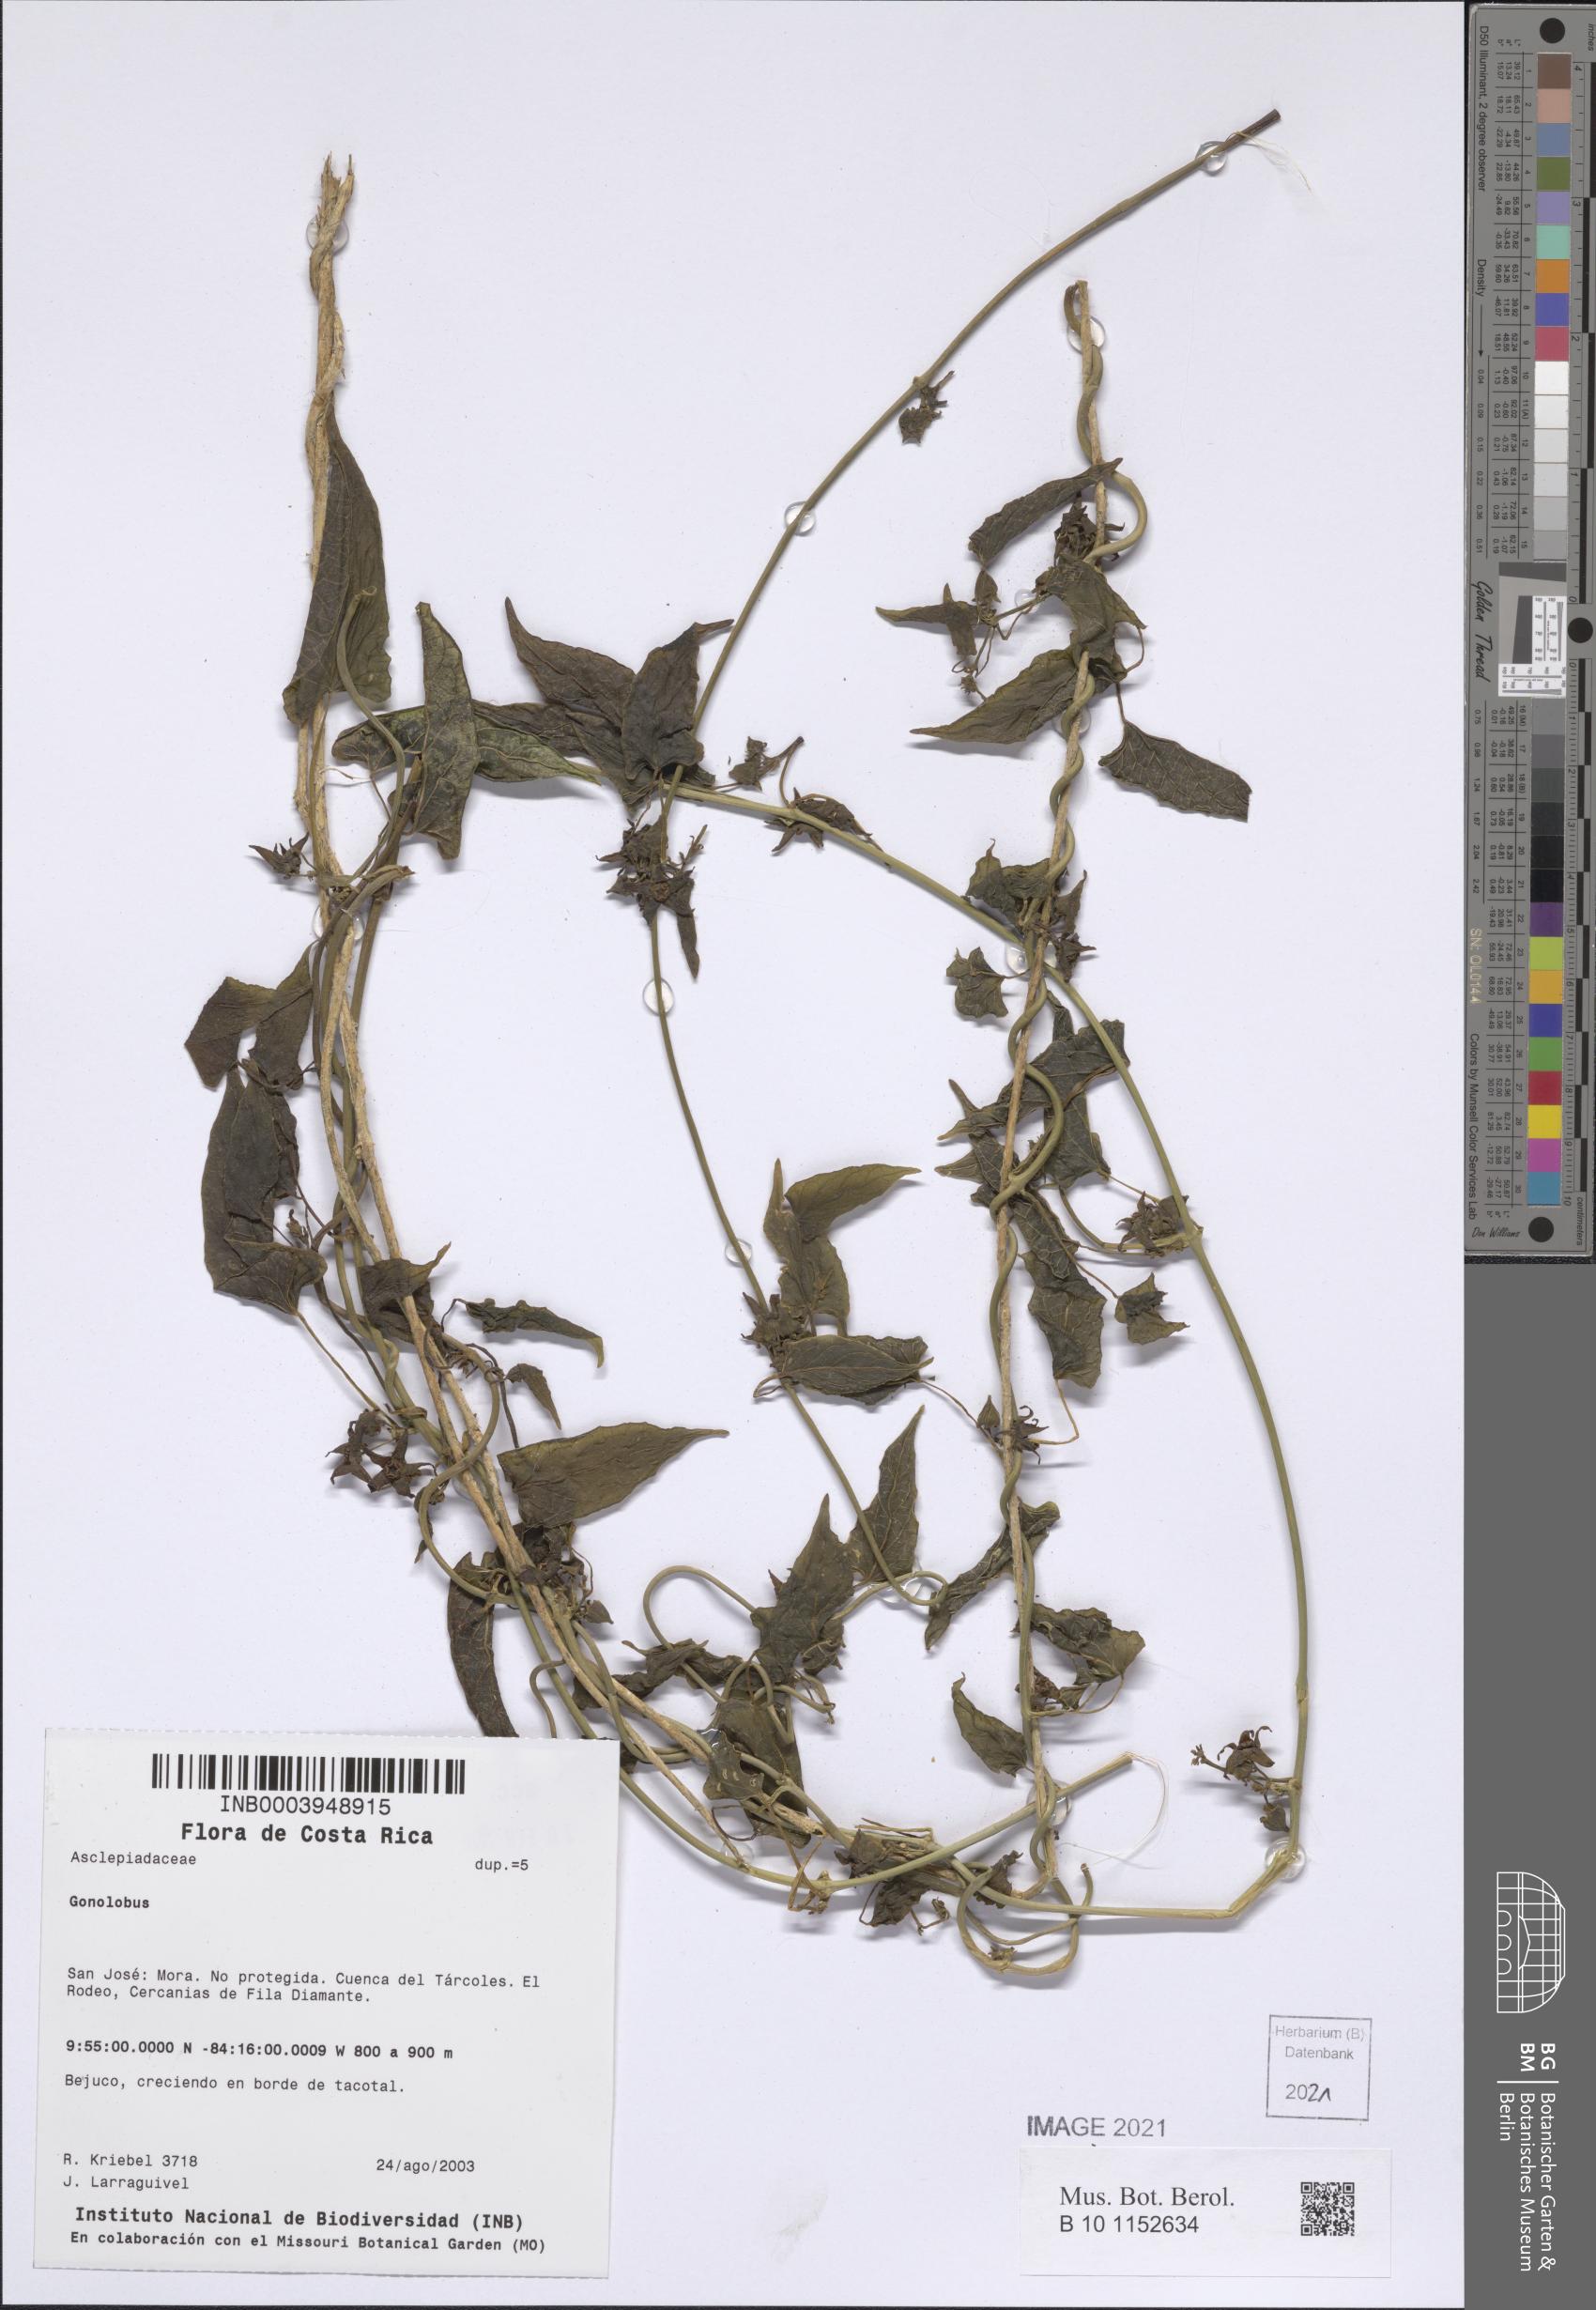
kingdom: Plantae
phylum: Tracheophyta
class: Magnoliopsida
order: Gentianales
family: Apocynaceae
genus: Gonolobus
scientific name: Gonolobus edulis
